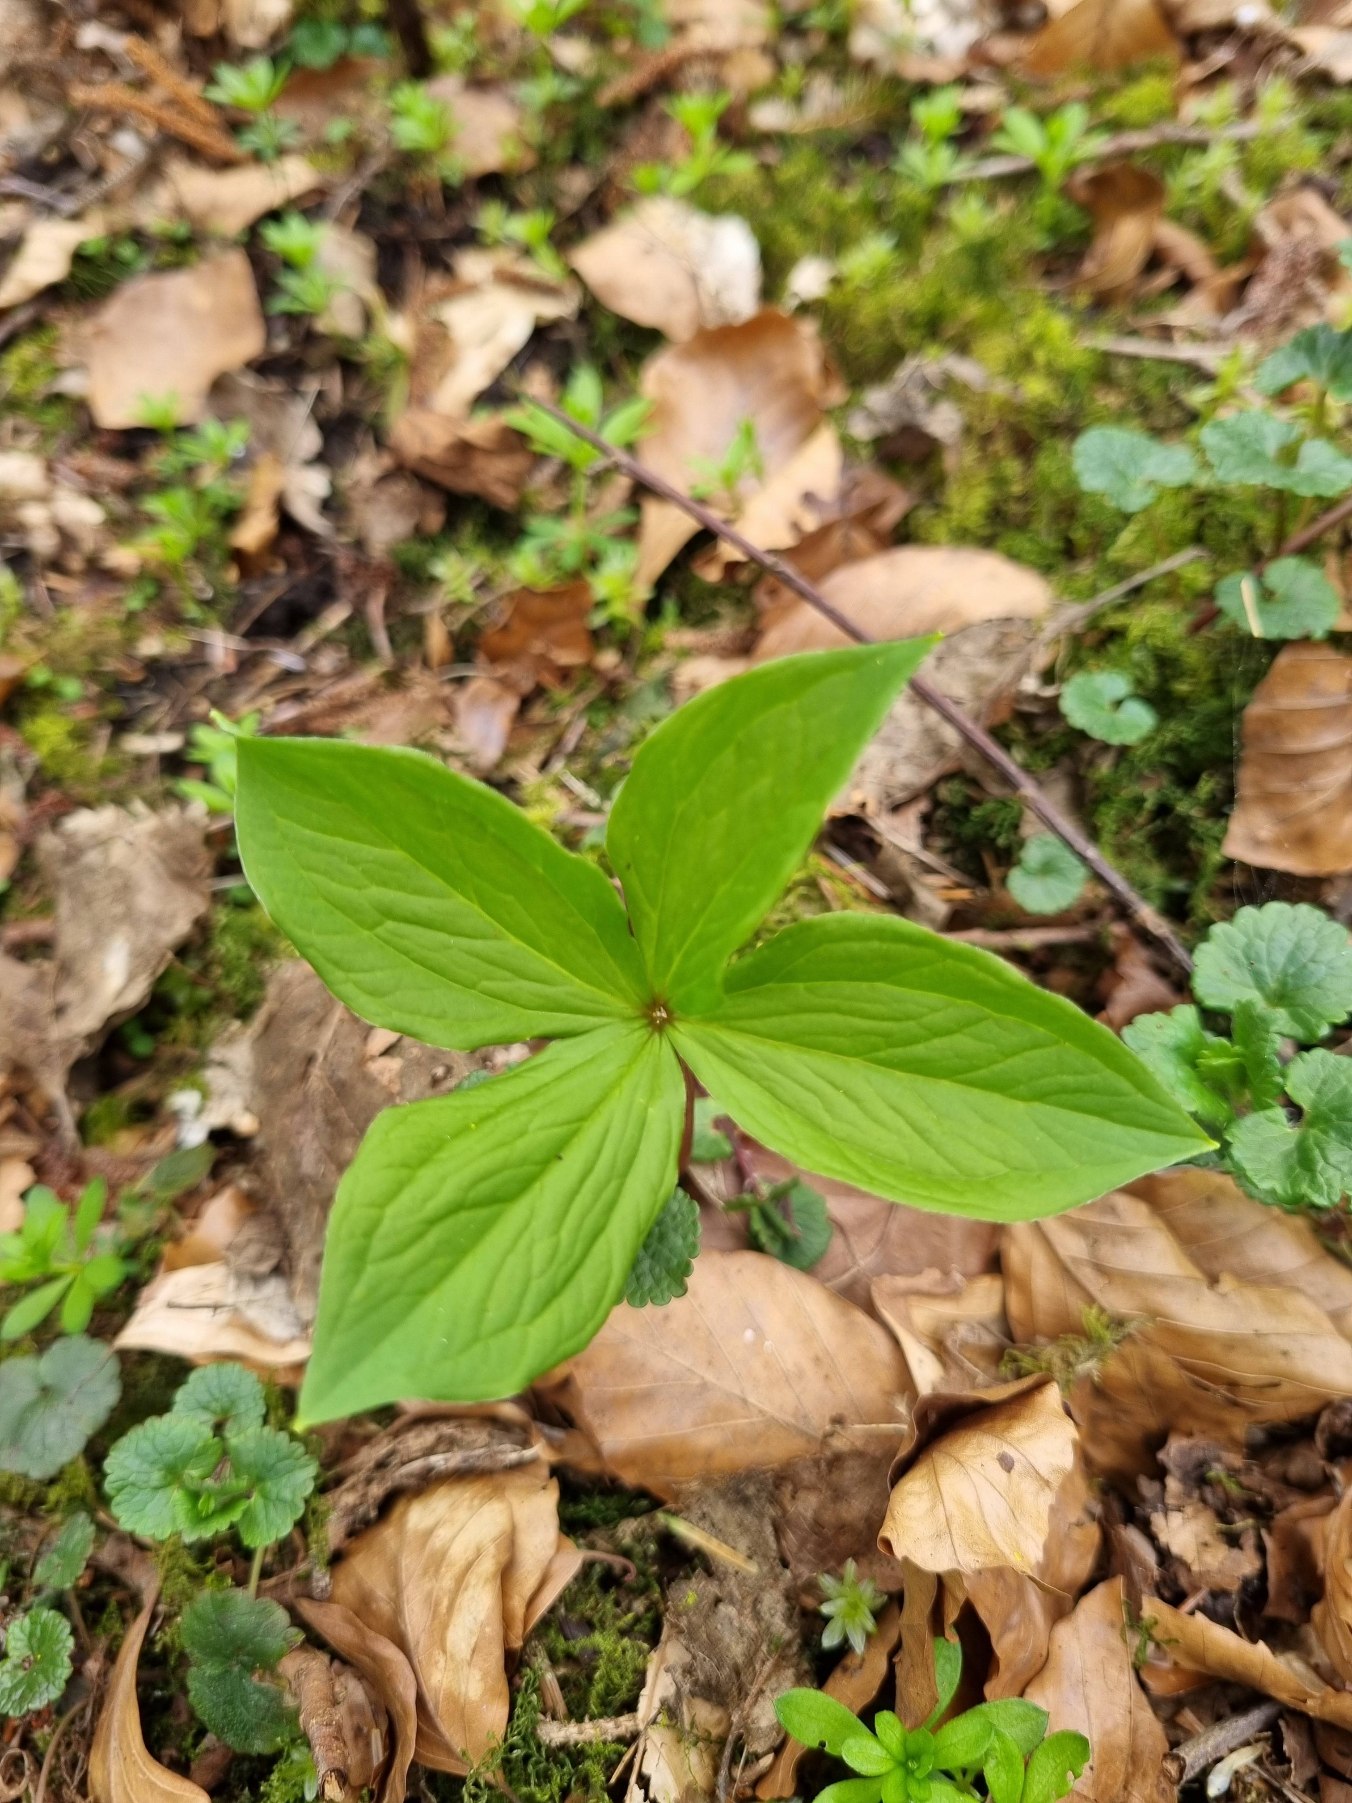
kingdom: Plantae
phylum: Tracheophyta
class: Liliopsida
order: Liliales
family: Melanthiaceae
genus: Paris
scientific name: Paris quadrifolia
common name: Firblad
